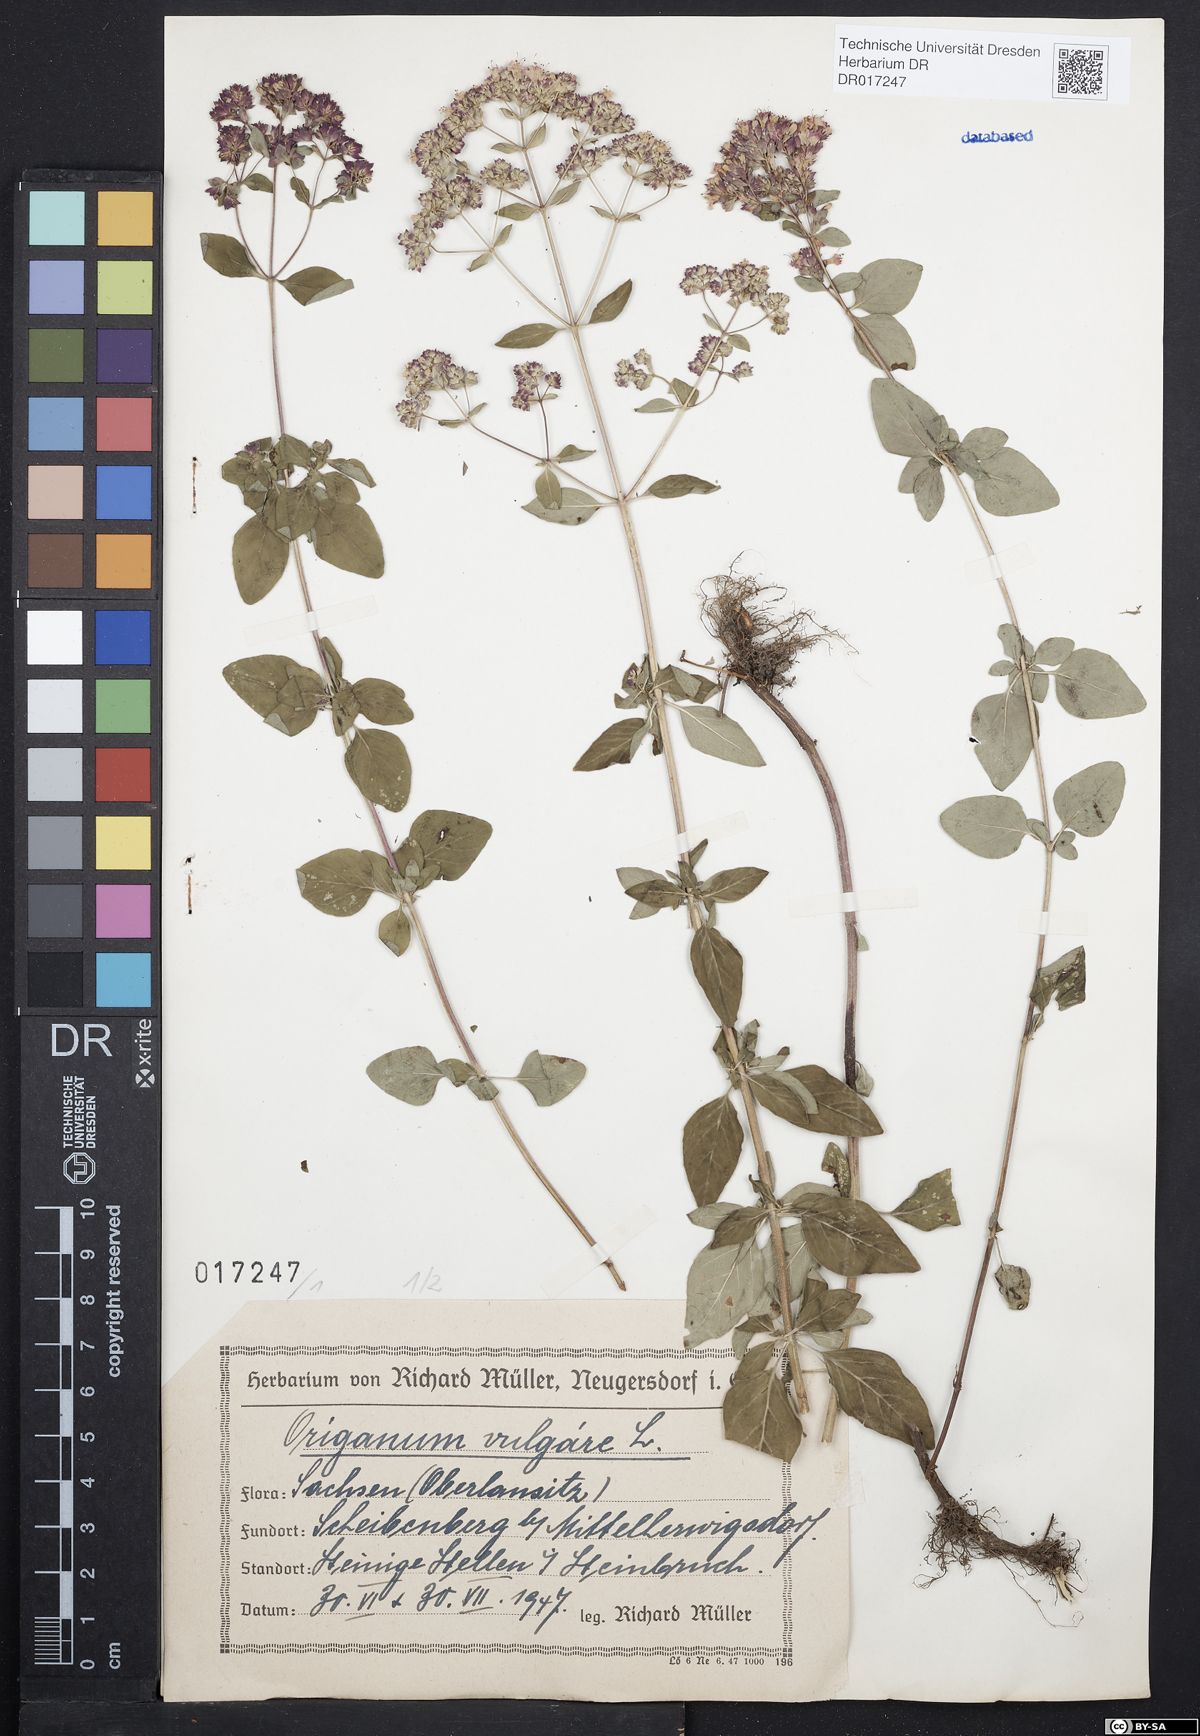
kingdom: Plantae
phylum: Tracheophyta
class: Magnoliopsida
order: Lamiales
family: Lamiaceae
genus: Origanum
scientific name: Origanum vulgare
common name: Wild marjoram
